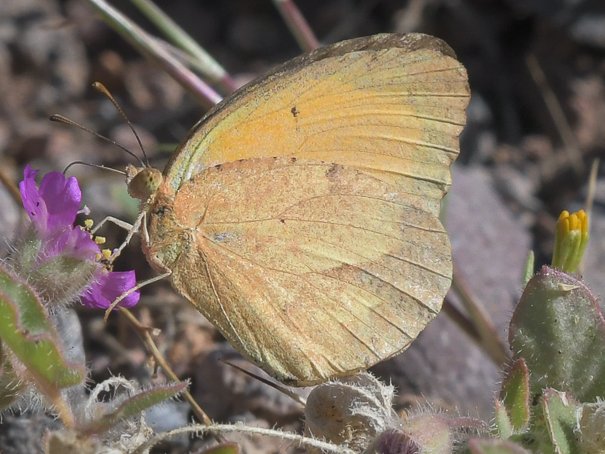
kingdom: Animalia
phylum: Arthropoda
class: Insecta
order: Lepidoptera
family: Pieridae
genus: Abaeis
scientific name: Abaeis nicippe
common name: Sleepy Orange
